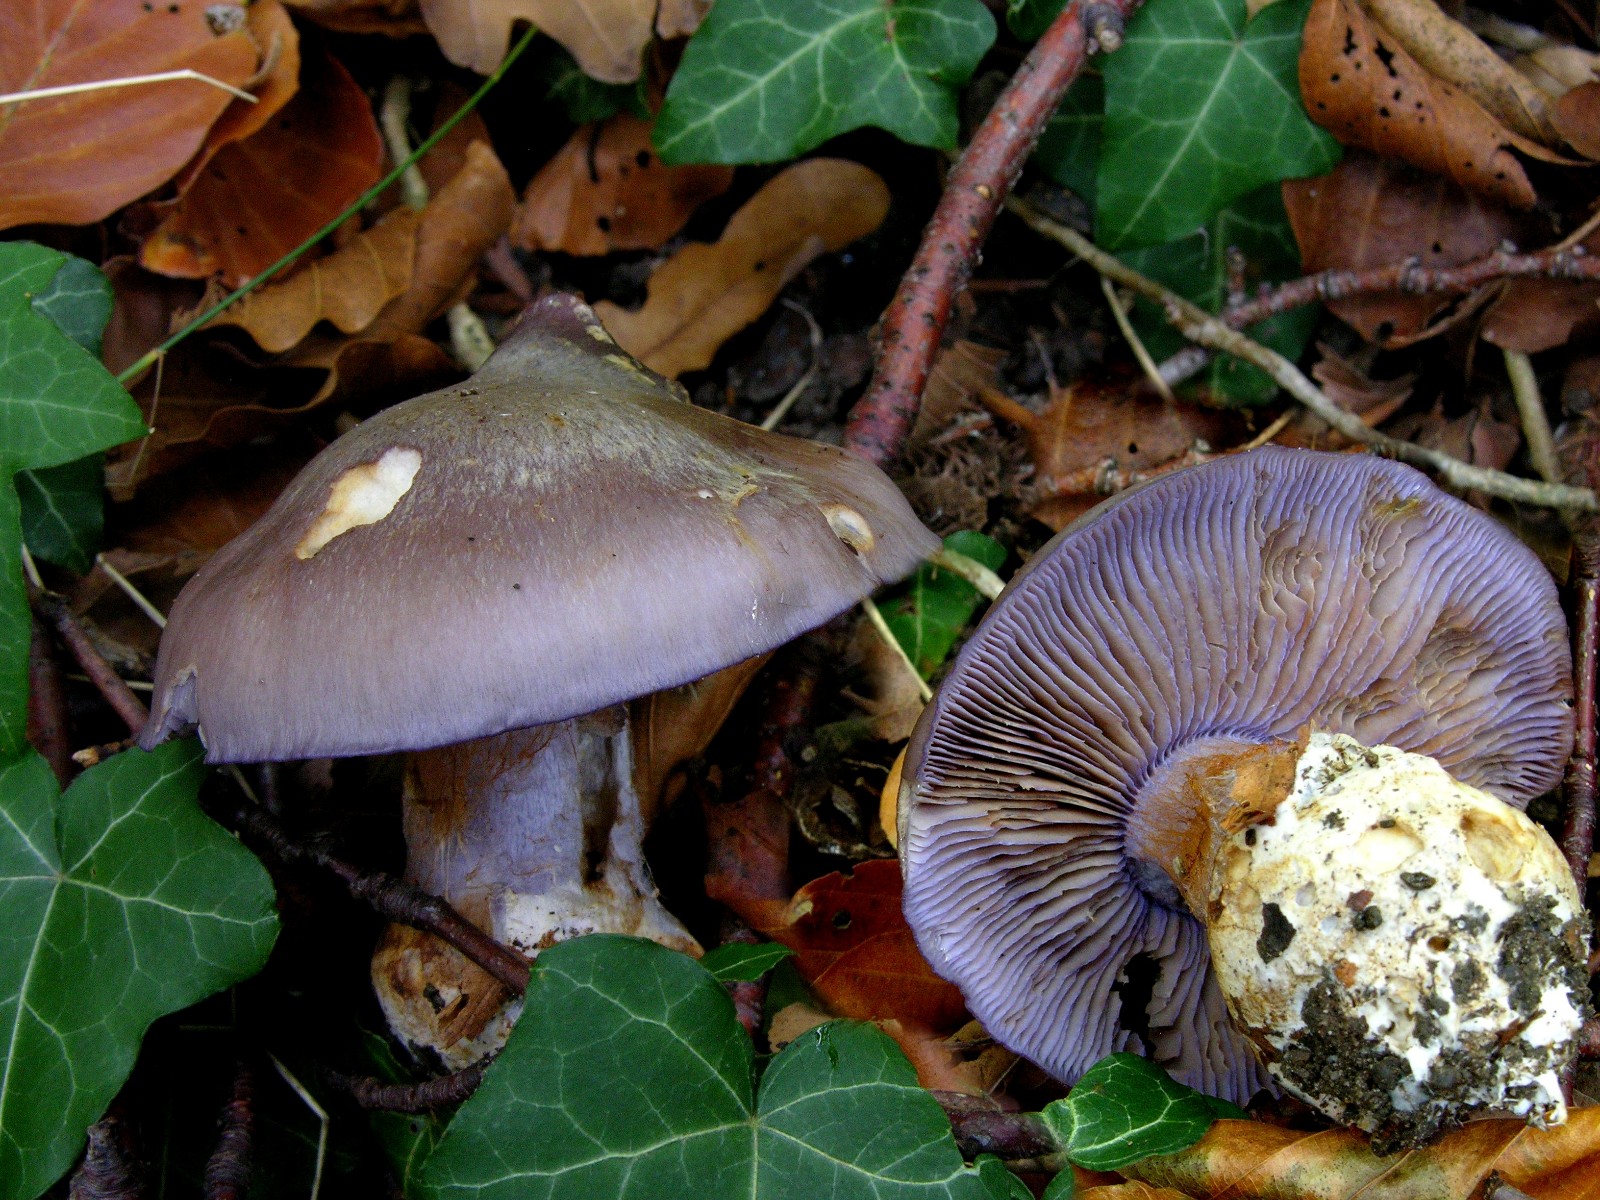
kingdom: Fungi
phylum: Basidiomycota
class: Agaricomycetes
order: Agaricales
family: Cortinariaceae
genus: Phlegmacium
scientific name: Phlegmacium viridocoeruleum
